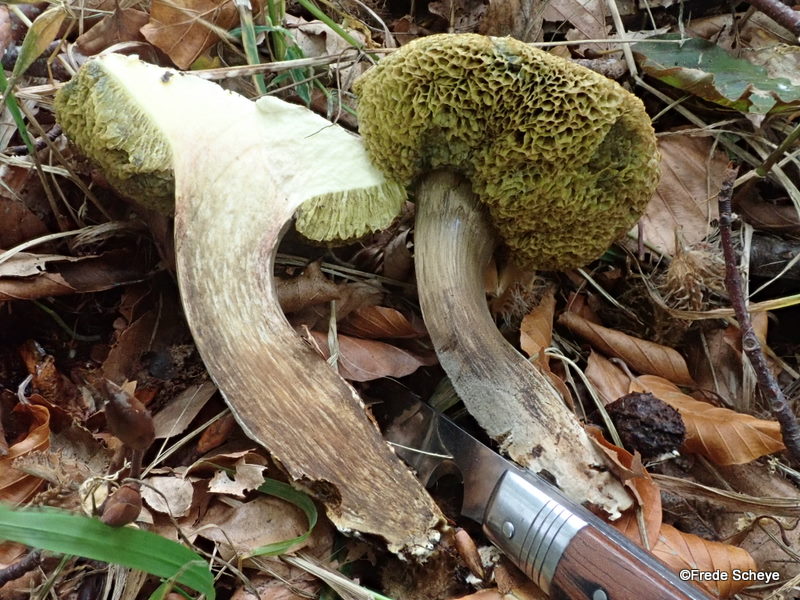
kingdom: Fungi
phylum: Basidiomycota
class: Agaricomycetes
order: Boletales
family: Boletaceae
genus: Xerocomellus
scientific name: Xerocomellus porosporus
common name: hvidsprukken rørhat
